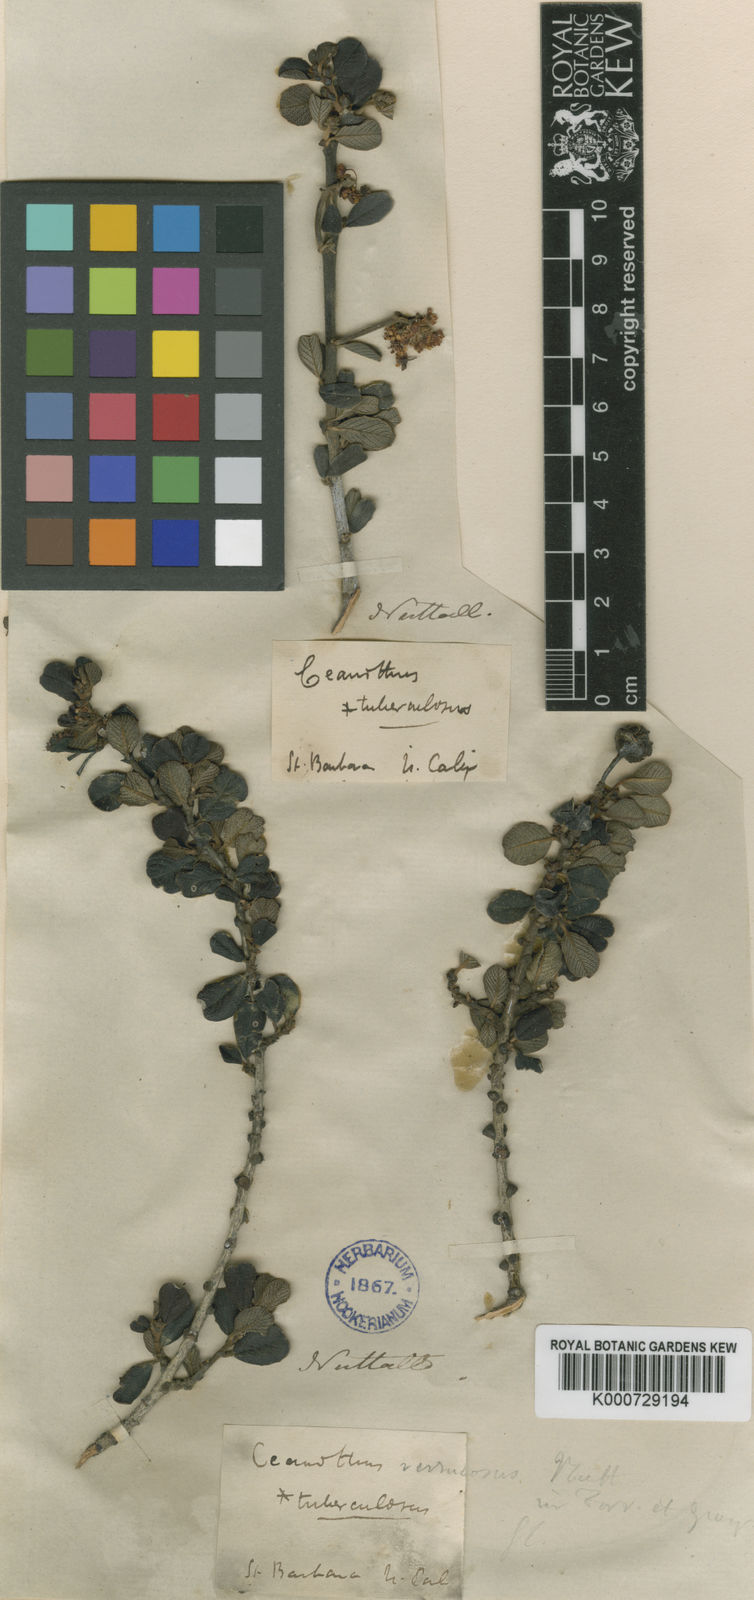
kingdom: Plantae
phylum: Tracheophyta
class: Magnoliopsida
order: Rosales
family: Rhamnaceae
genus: Ceanothus
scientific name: Ceanothus verrucosus
